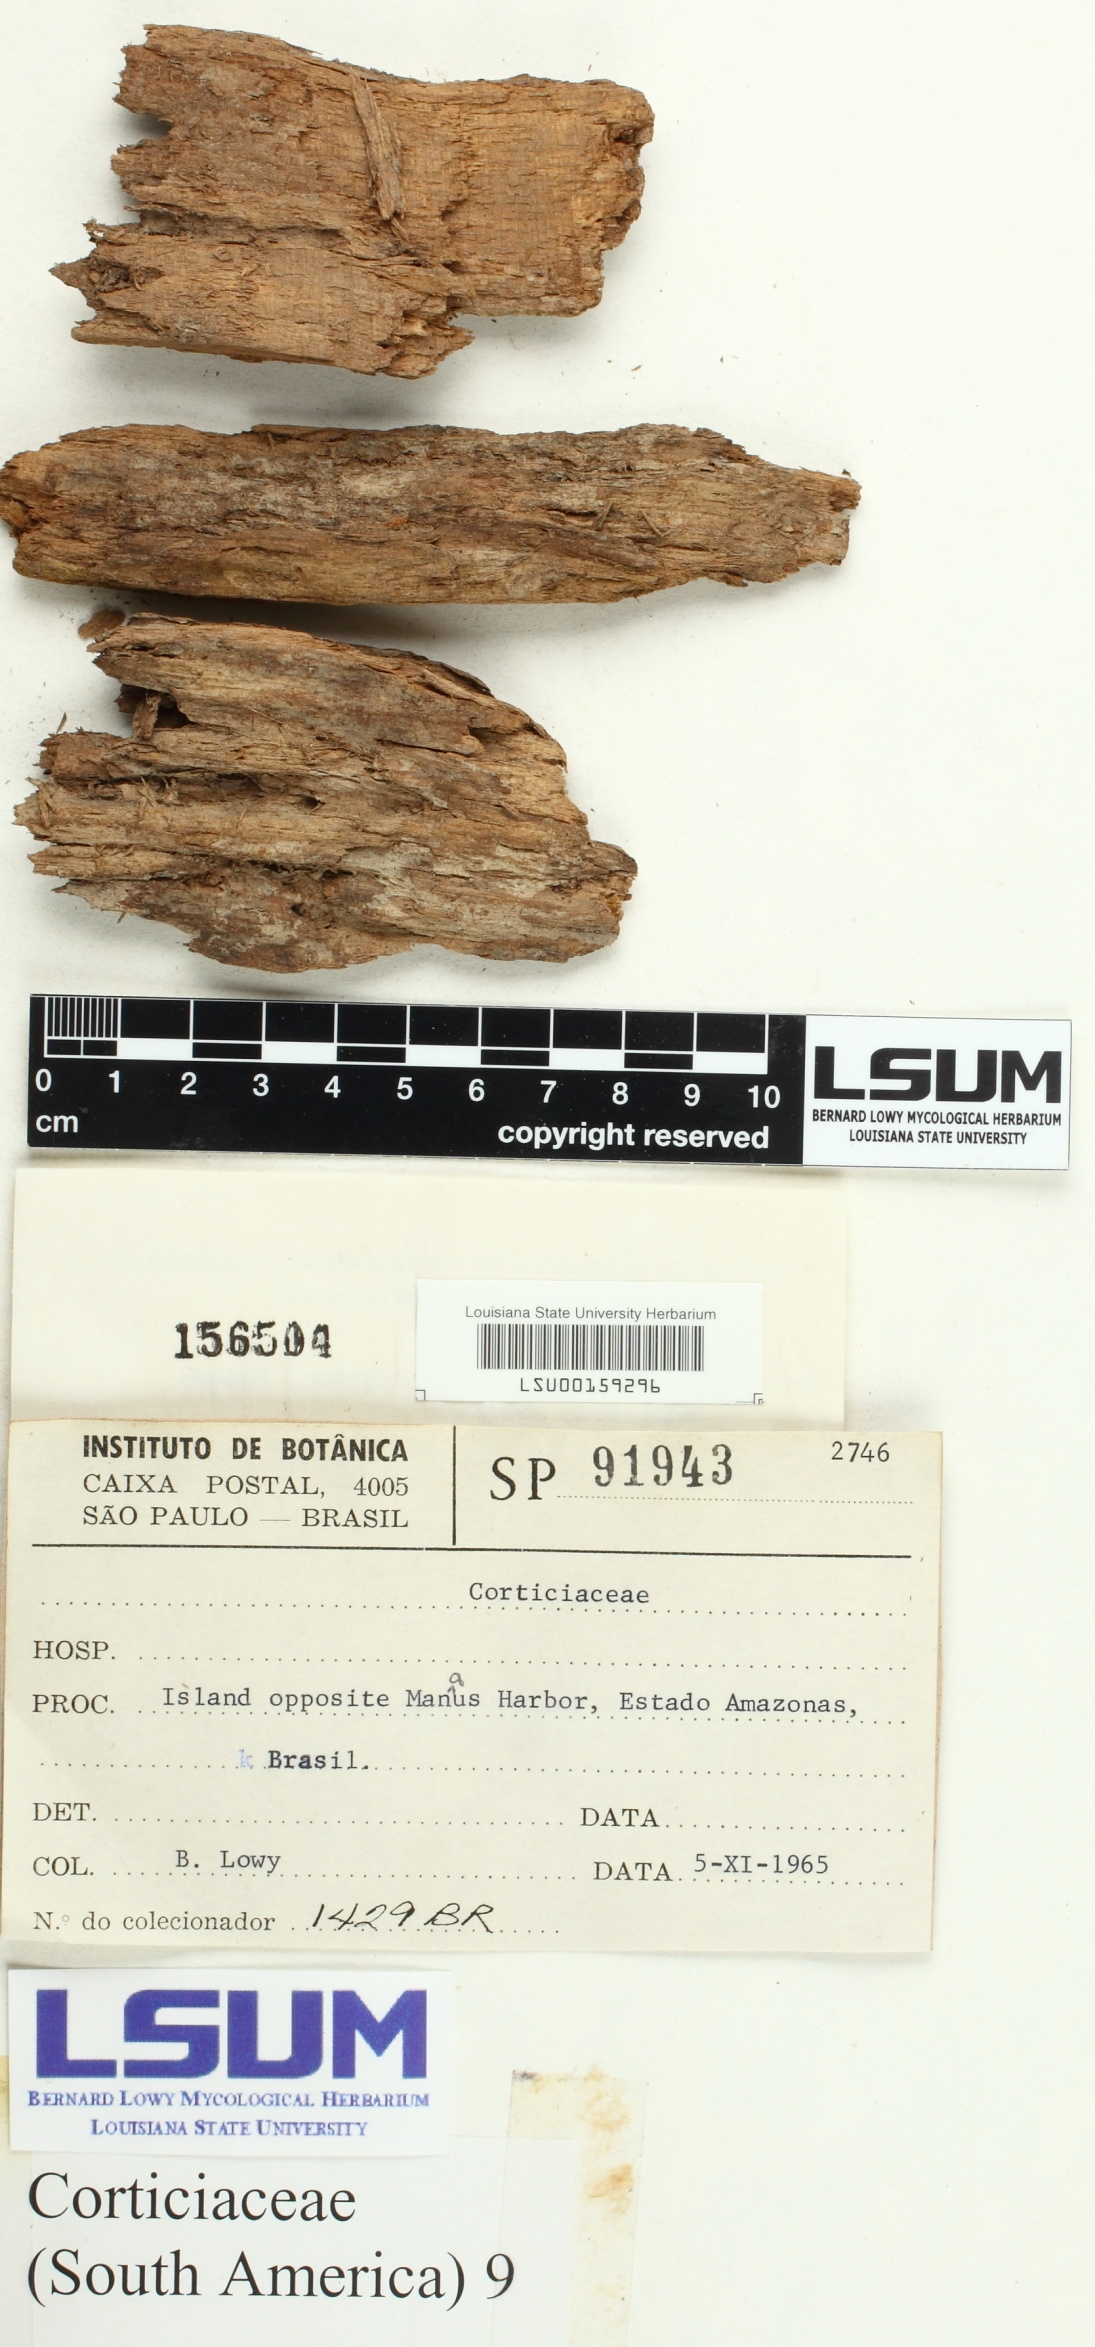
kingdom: Fungi
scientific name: Fungi
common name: Fungi
